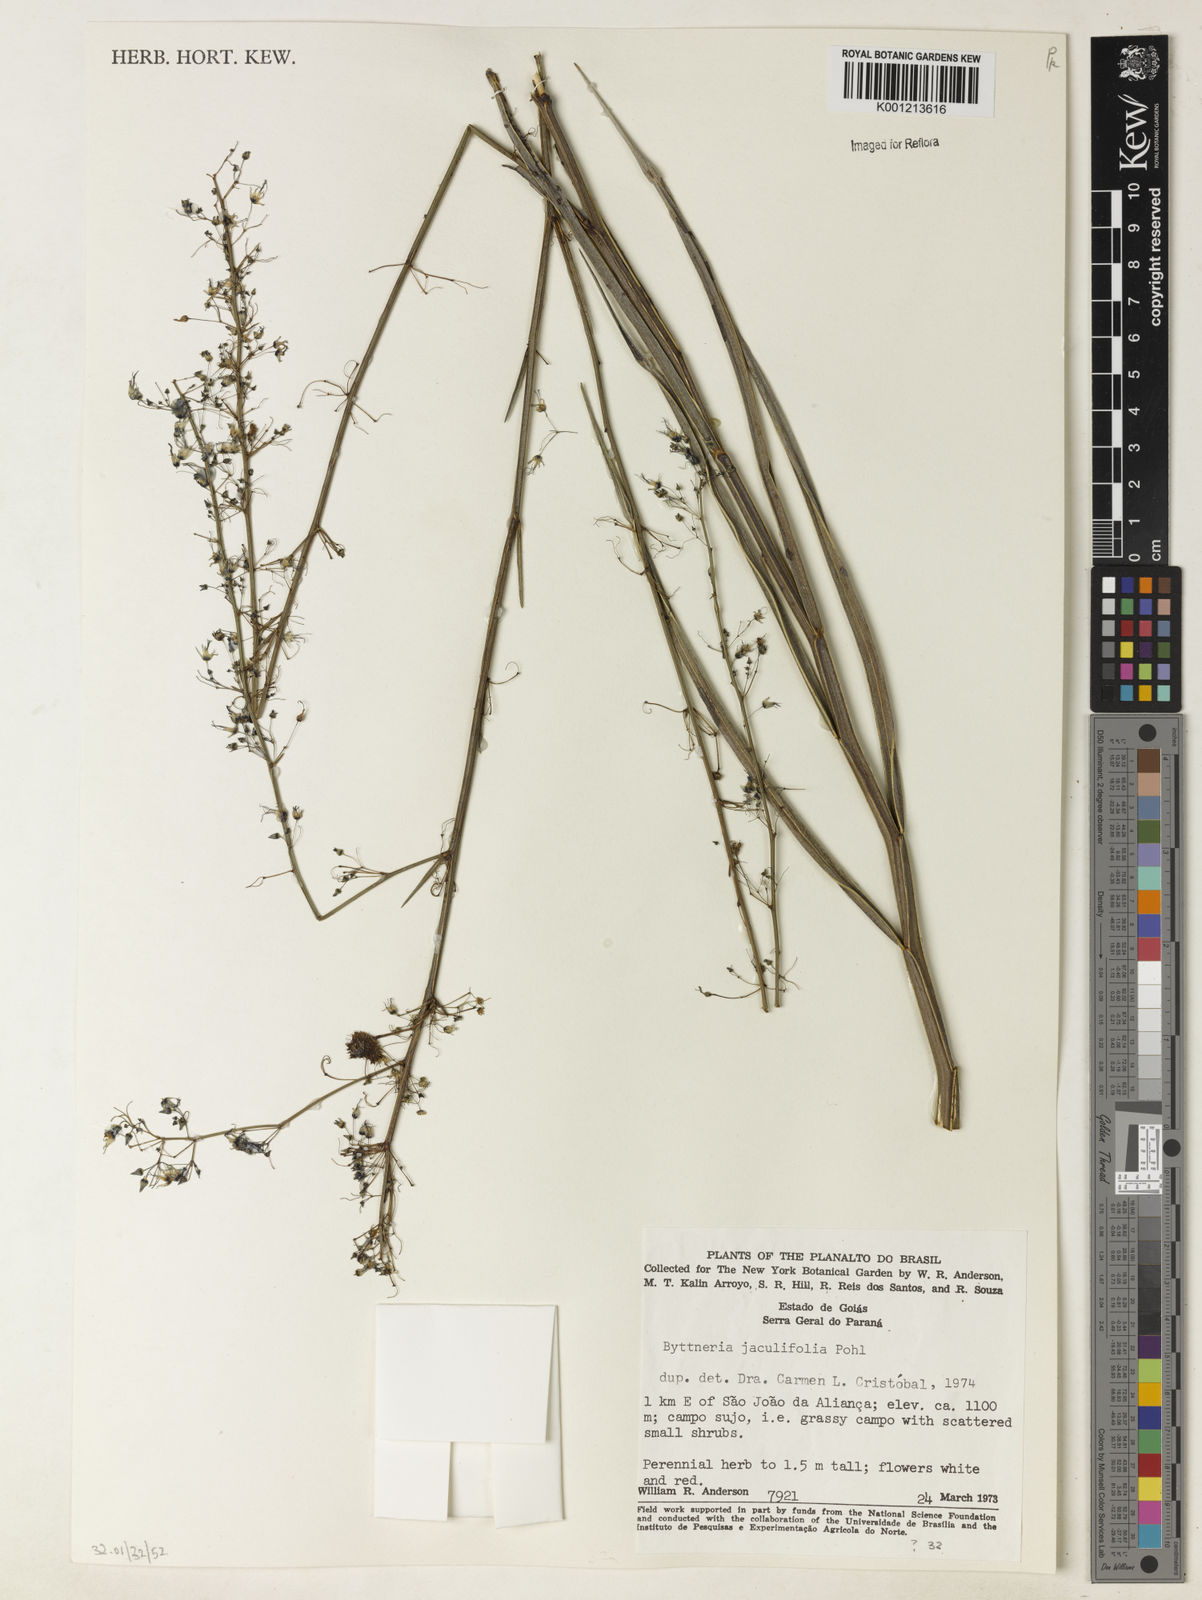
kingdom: Plantae
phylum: Tracheophyta
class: Magnoliopsida
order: Malvales
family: Malvaceae
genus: Byttneria
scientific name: Byttneria jaculifolia
